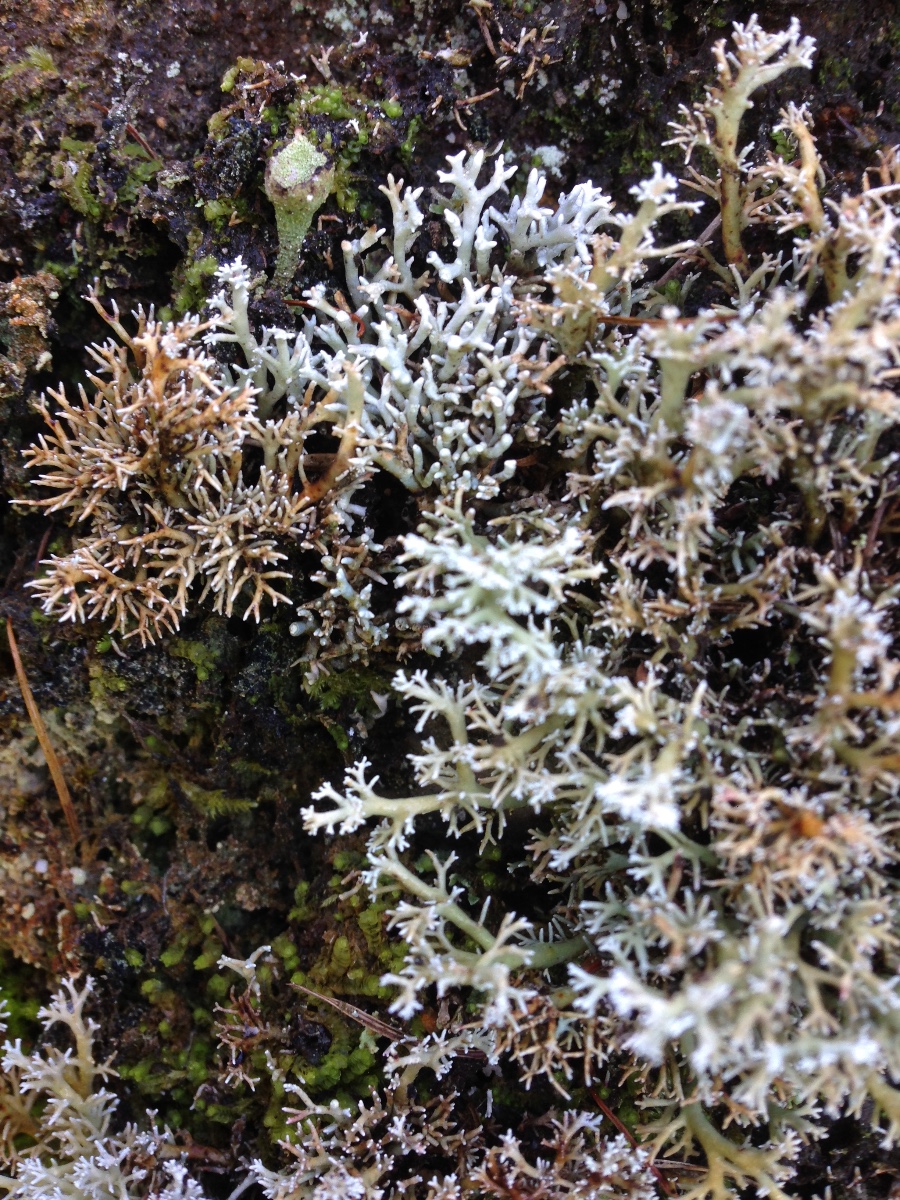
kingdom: Fungi
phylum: Ascomycota
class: Lecanoromycetes
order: Lecanorales
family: Sphaerophoraceae
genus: Sphaerophorus
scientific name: Sphaerophorus globosus
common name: almindelig kuglelav
